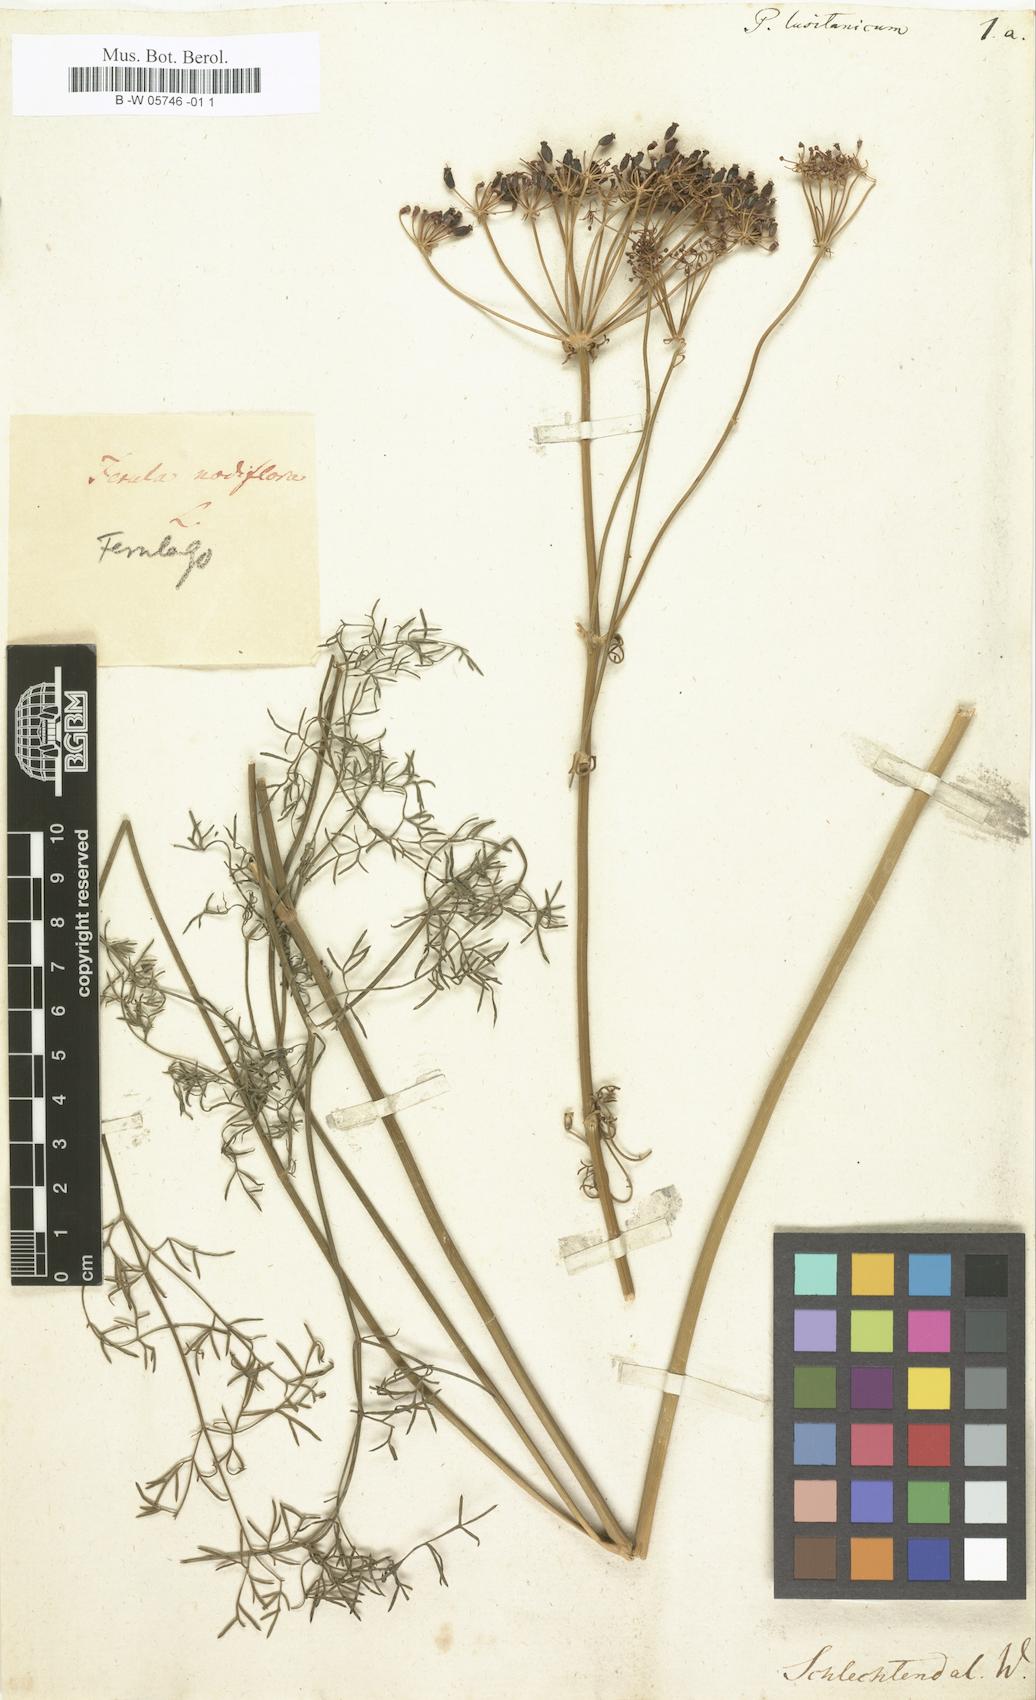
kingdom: Plantae
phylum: Tracheophyta
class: Magnoliopsida
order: Apiales
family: Apiaceae
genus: Ferulago
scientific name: Ferulago capillaris
